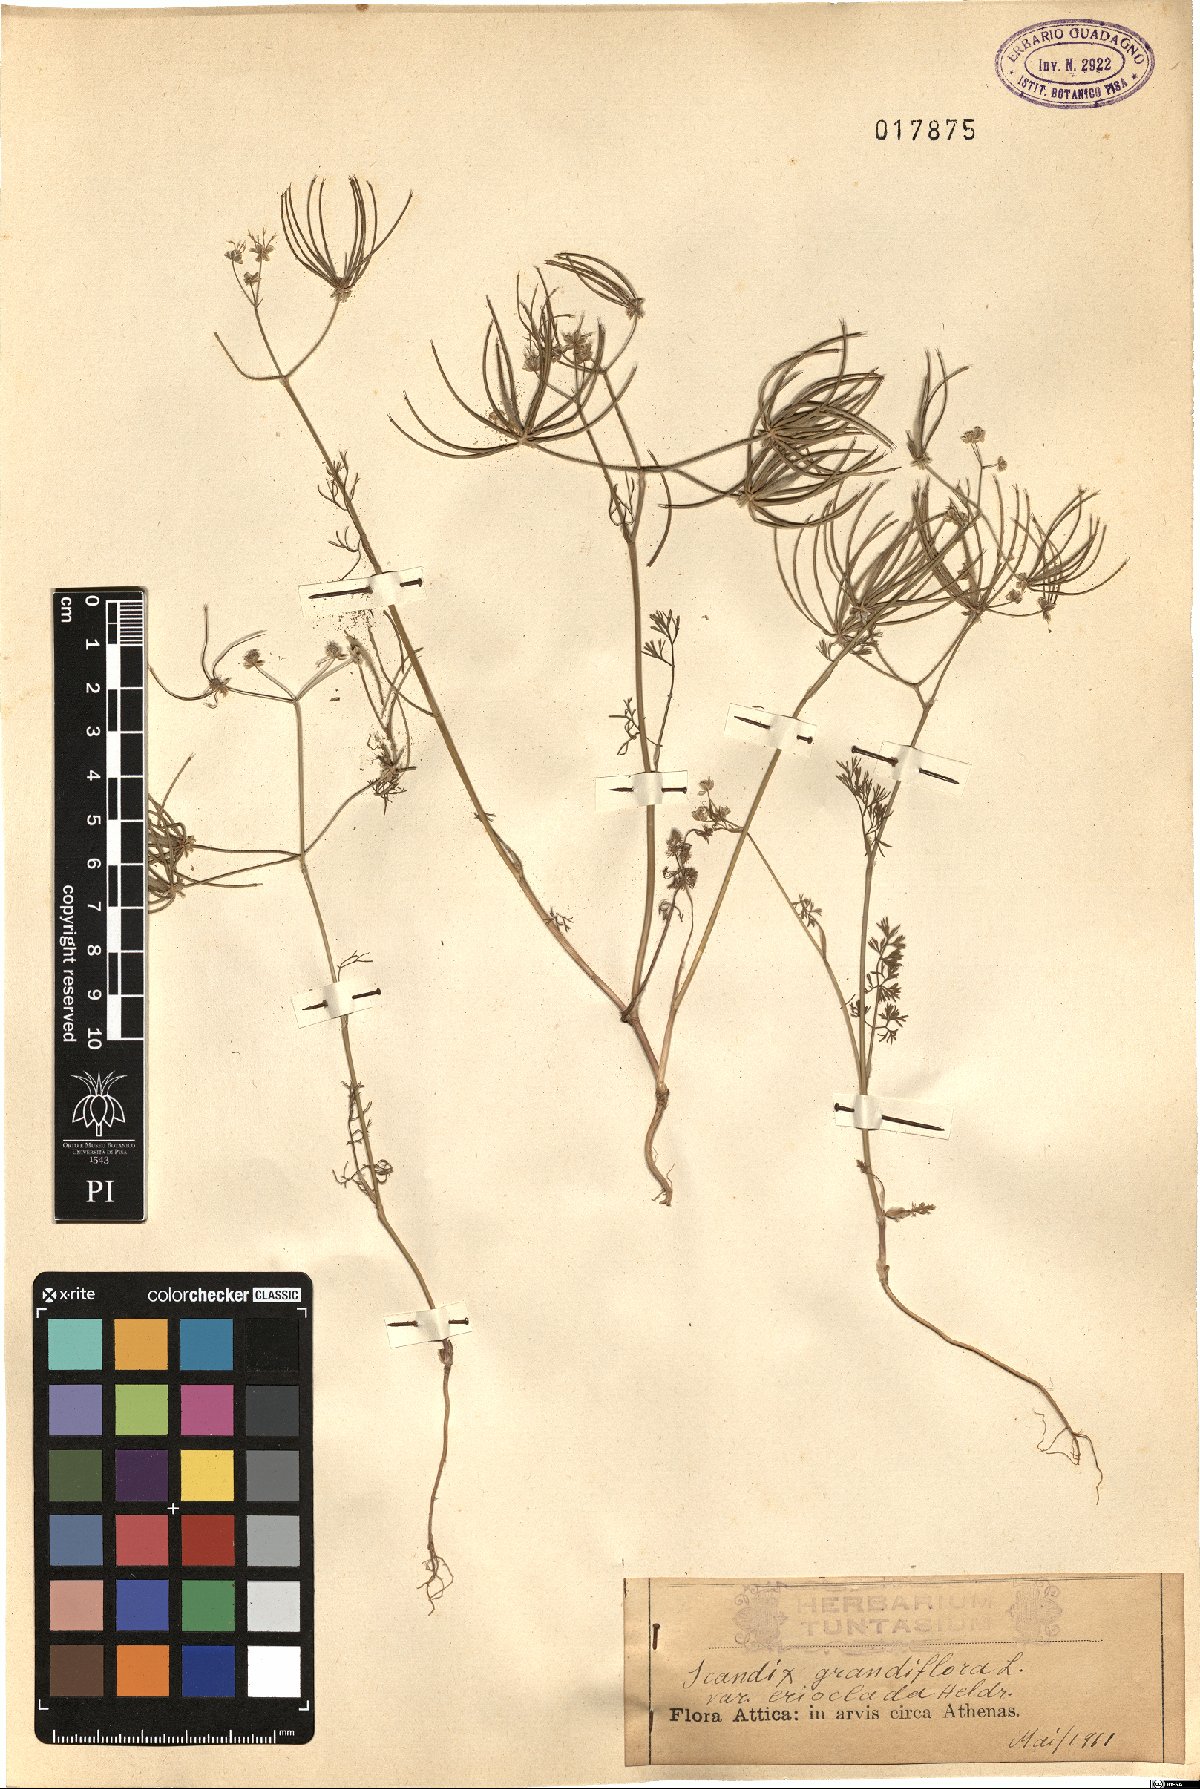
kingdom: Plantae
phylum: Tracheophyta
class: Magnoliopsida
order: Apiales
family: Apiaceae
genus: Scandix
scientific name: Scandix australis
